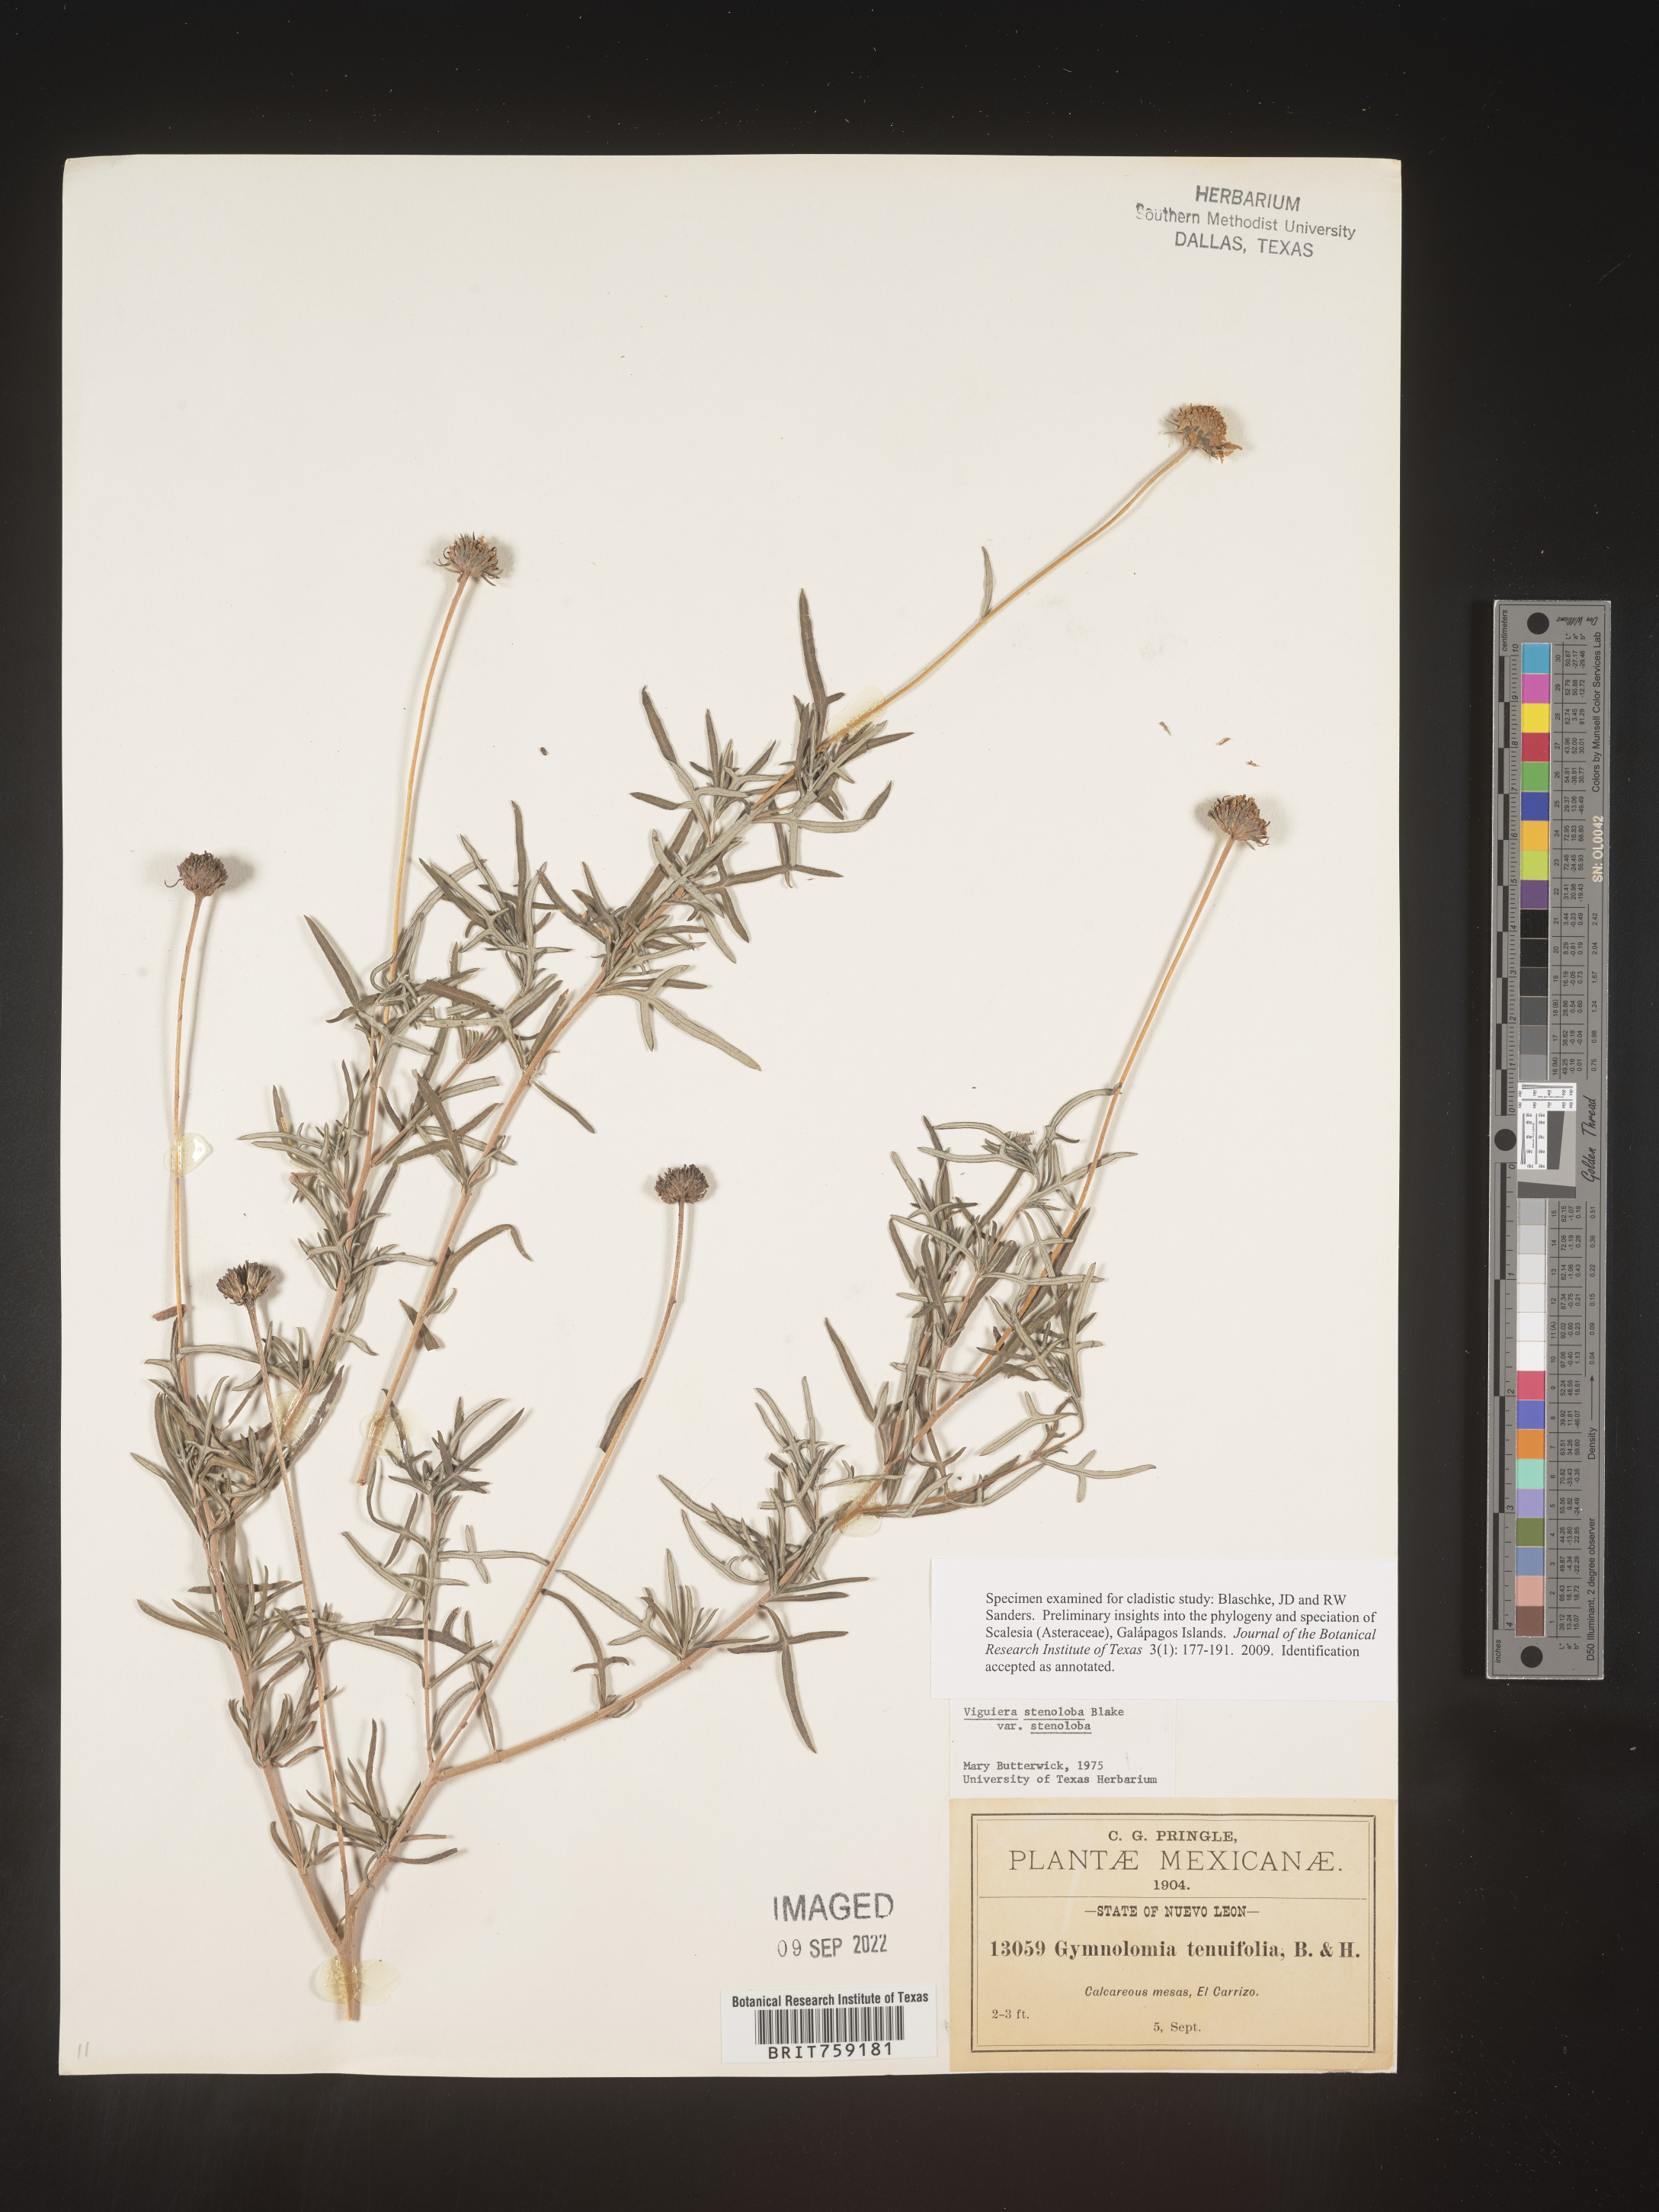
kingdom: Plantae
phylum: Tracheophyta
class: Magnoliopsida
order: Asterales
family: Asteraceae
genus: Viguiera
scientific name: Viguiera
